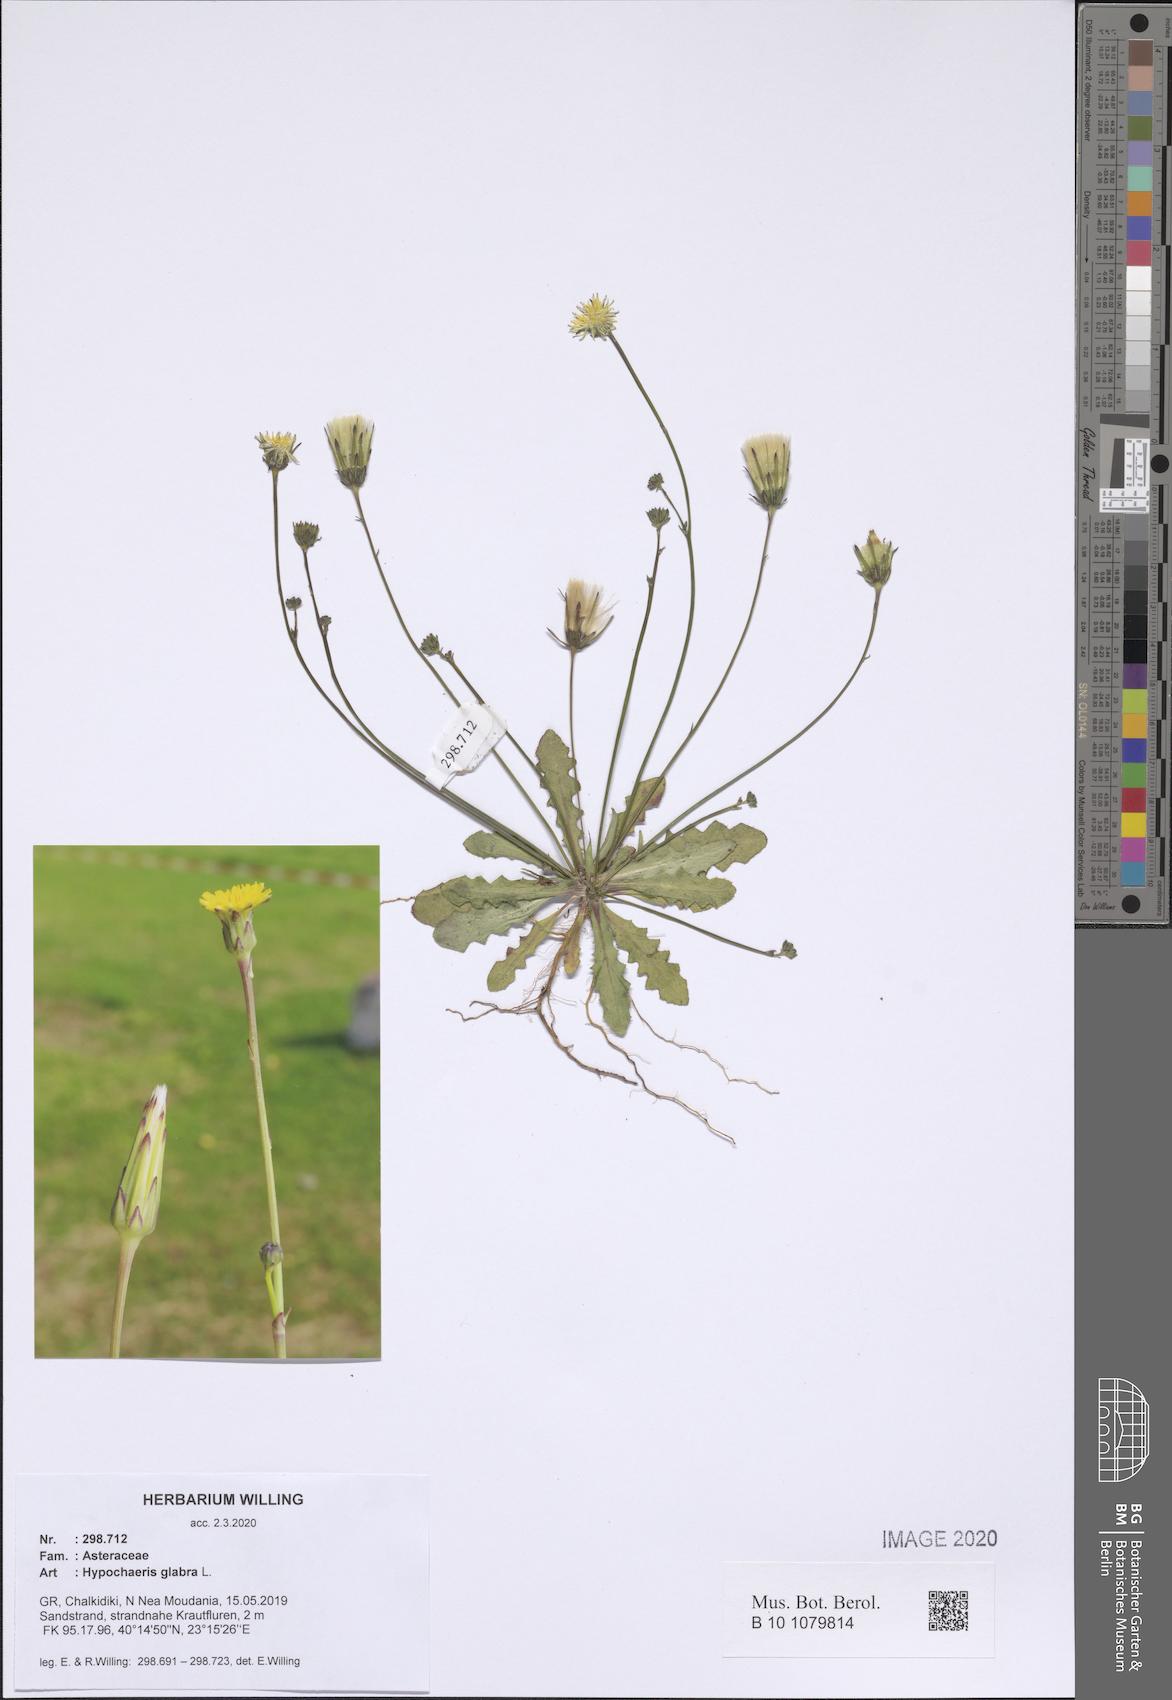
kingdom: Plantae
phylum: Tracheophyta
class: Magnoliopsida
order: Asterales
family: Asteraceae
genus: Hypochaeris
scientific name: Hypochaeris glabra
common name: Smooth catsear
